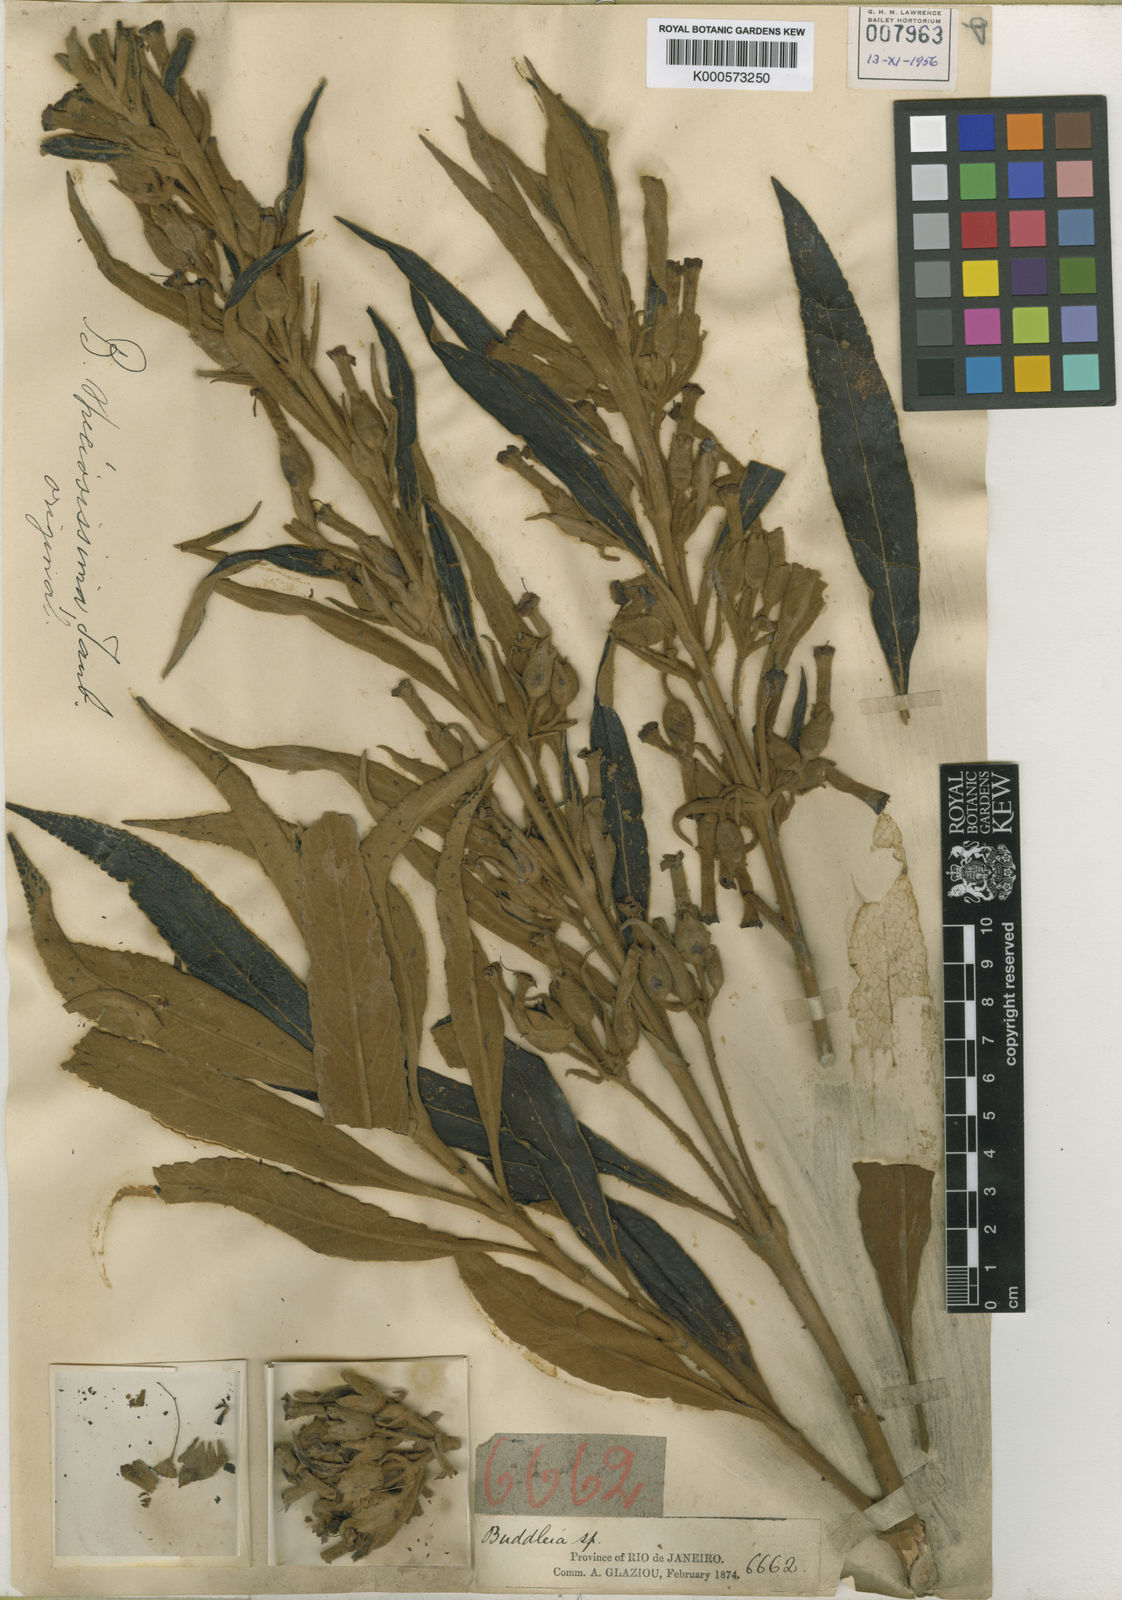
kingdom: Plantae
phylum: Tracheophyta
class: Magnoliopsida
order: Lamiales
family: Scrophulariaceae
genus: Buddleja
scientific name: Buddleja speciosissima
